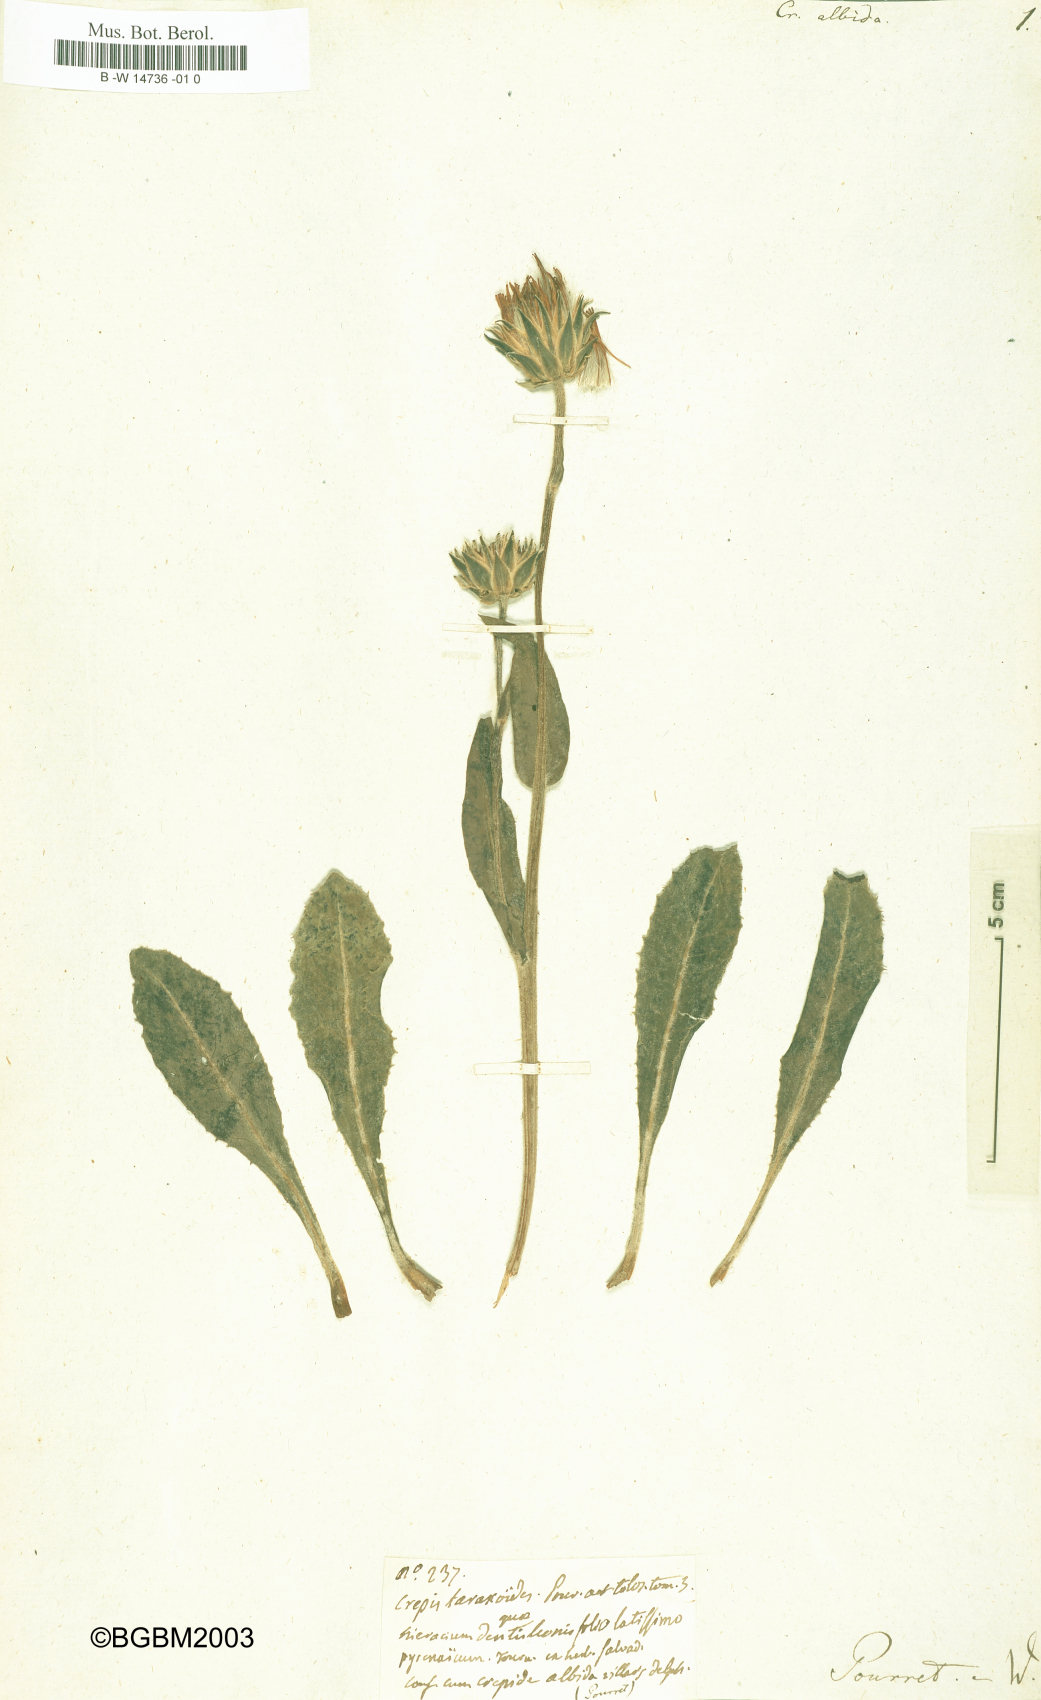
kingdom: Plantae
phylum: Tracheophyta
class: Magnoliopsida
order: Asterales
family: Asteraceae
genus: Crepis
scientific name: Crepis albida
